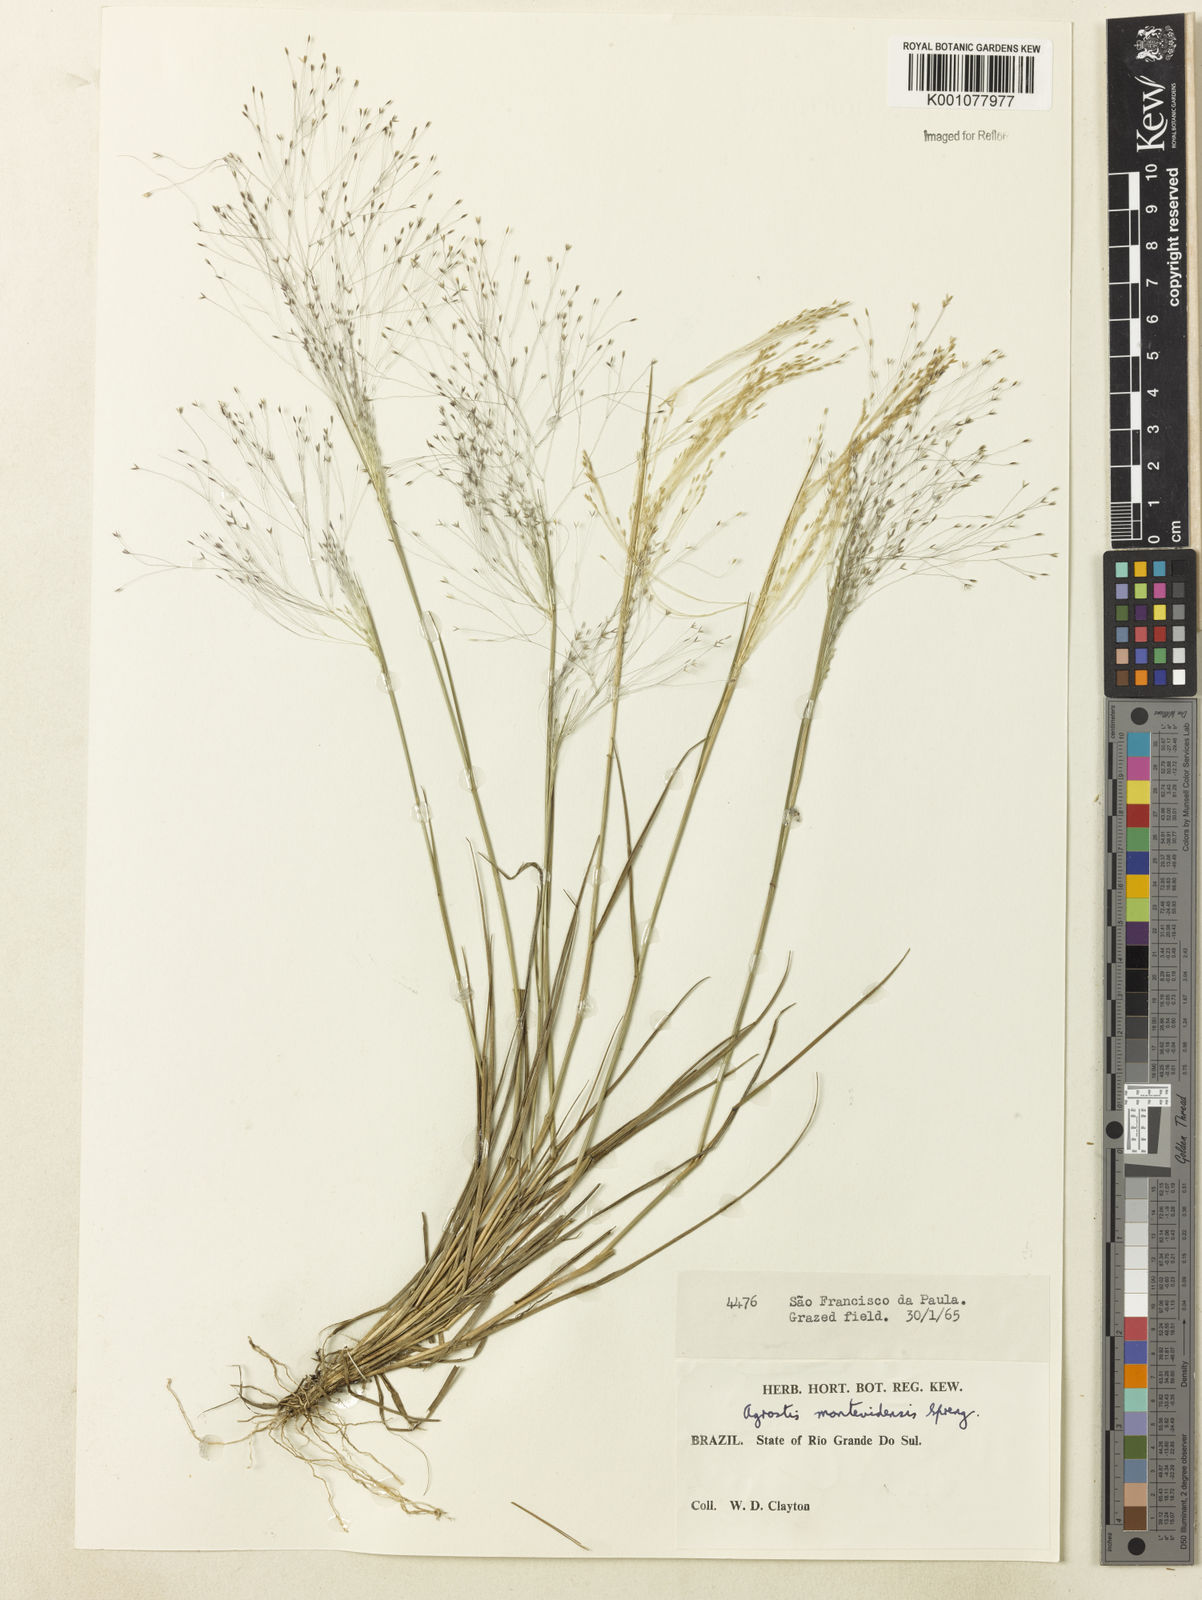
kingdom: Plantae
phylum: Tracheophyta
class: Liliopsida
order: Poales
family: Poaceae
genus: Agrostis
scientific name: Agrostis montevidensis
